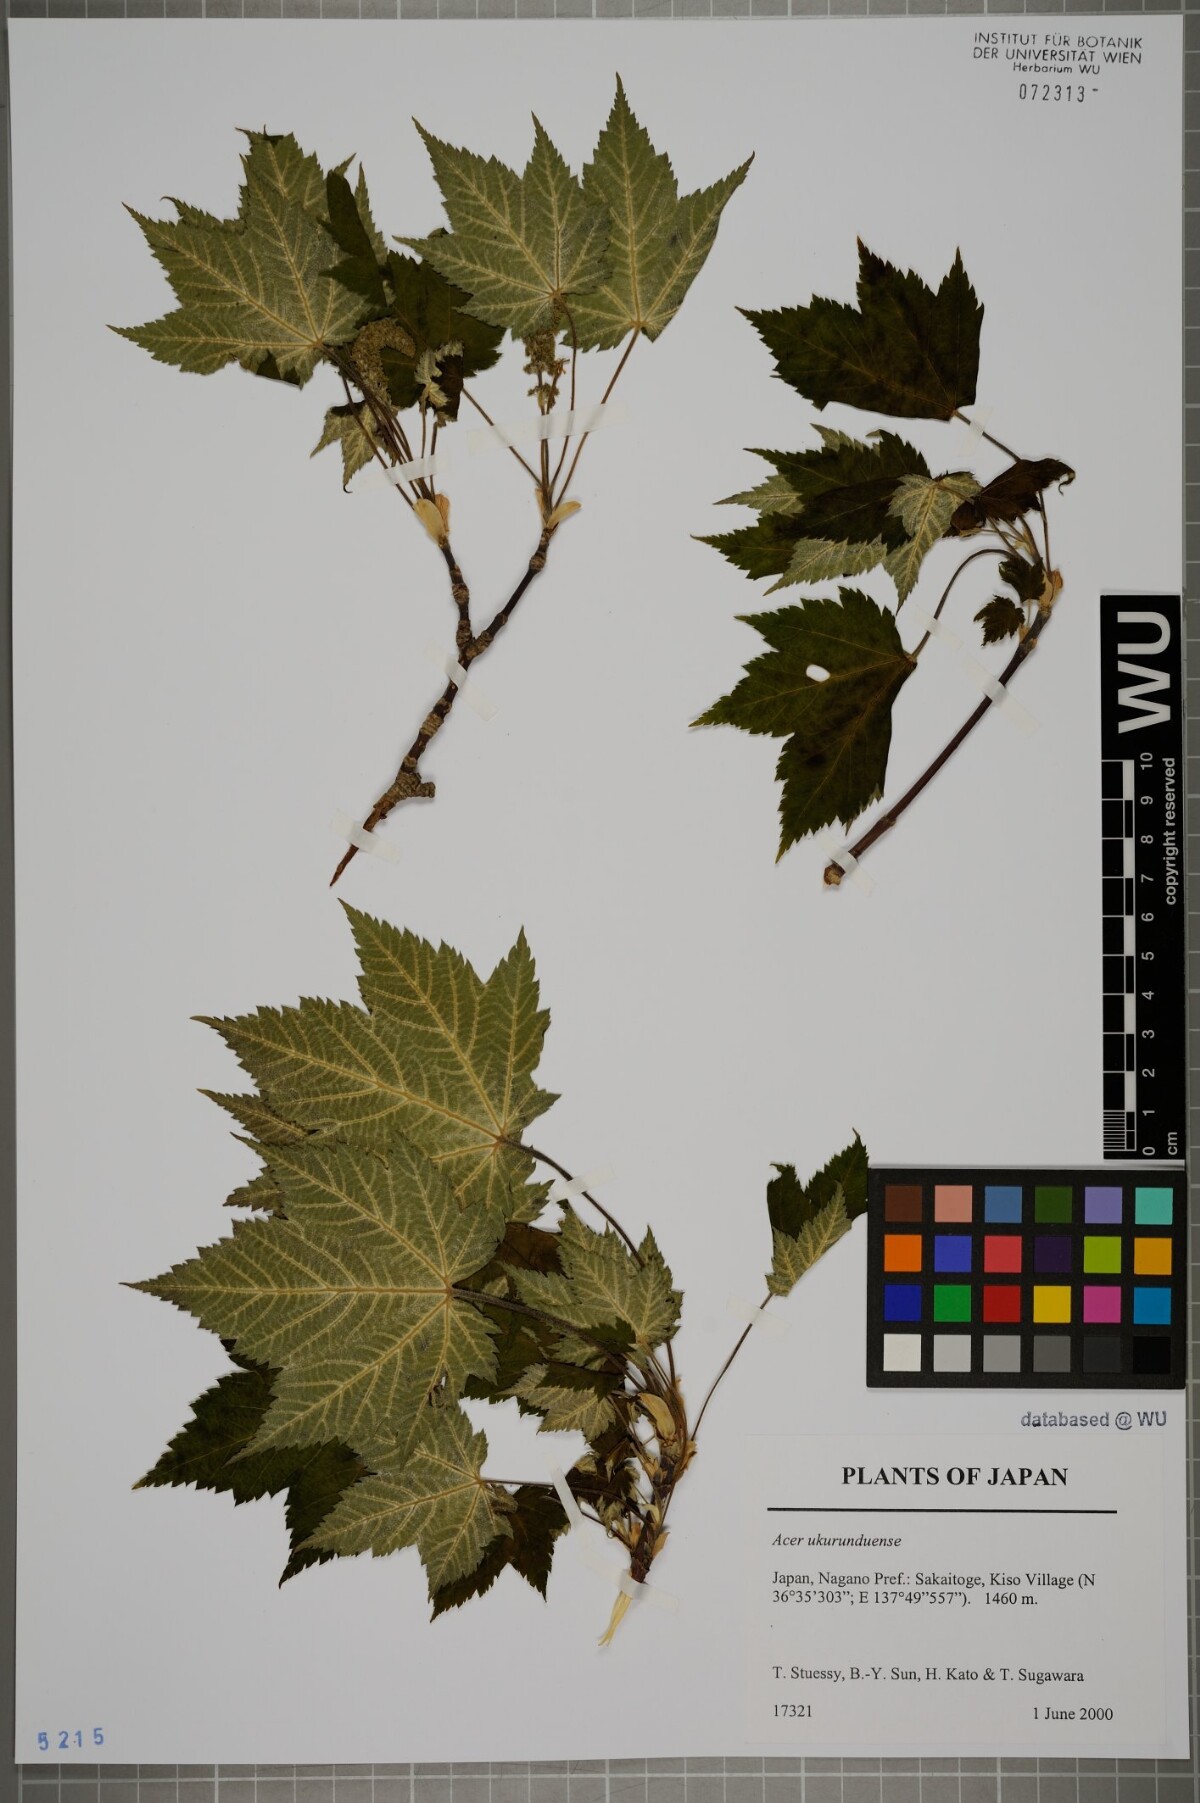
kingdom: Plantae
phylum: Tracheophyta
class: Magnoliopsida
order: Sapindales
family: Sapindaceae
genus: Acer
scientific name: Acer ukurunduense
